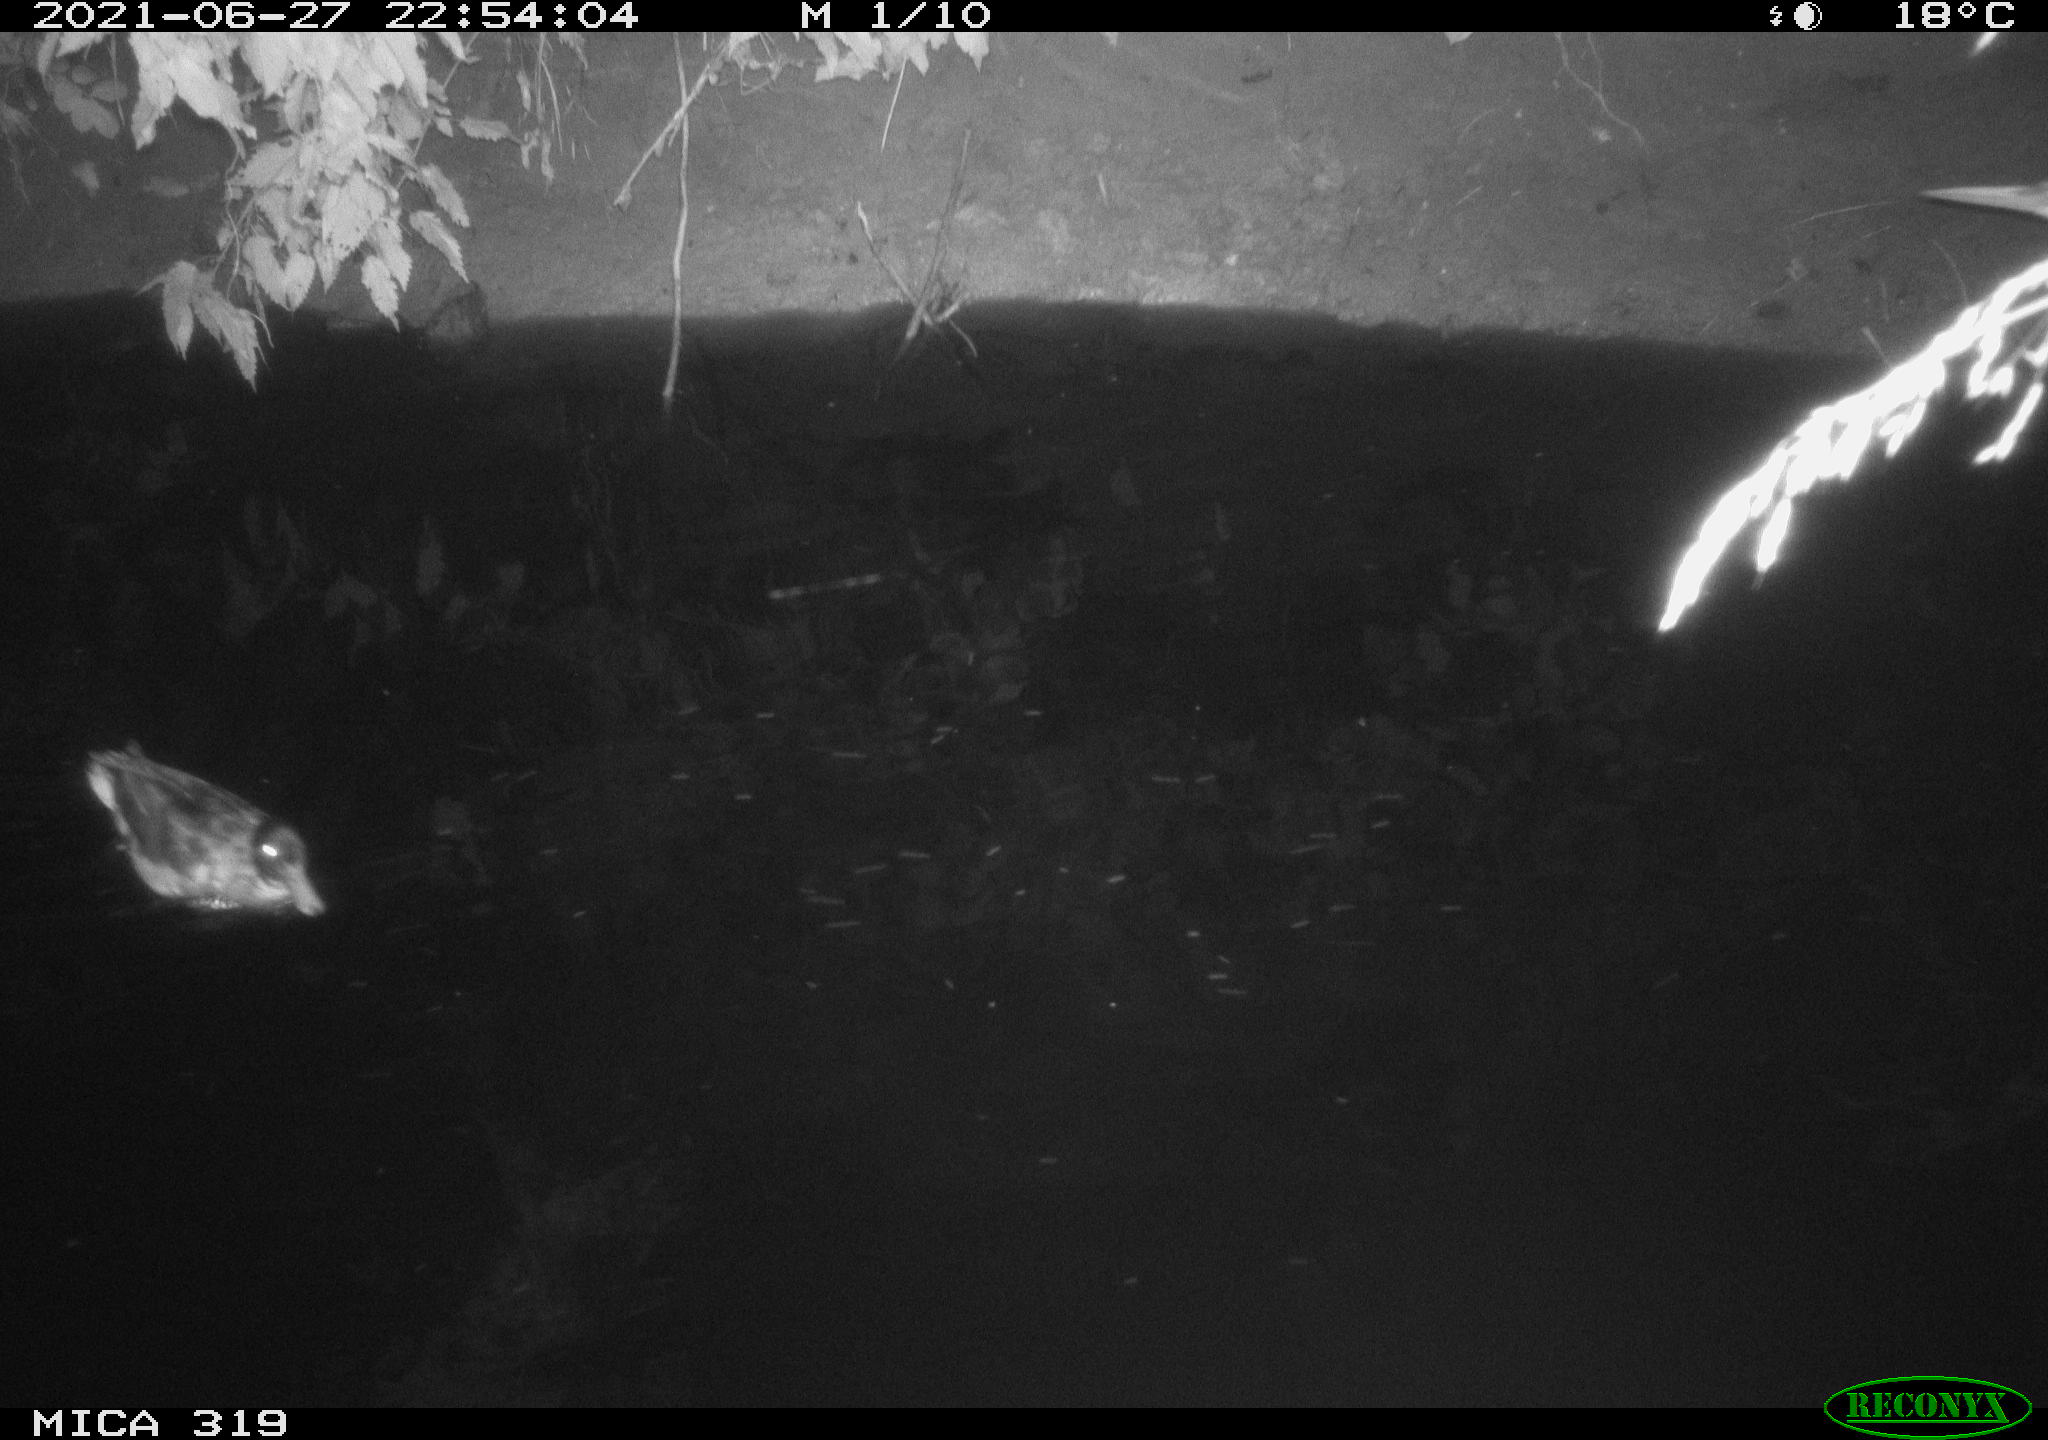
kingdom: Animalia
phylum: Chordata
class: Aves
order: Anseriformes
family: Anatidae
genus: Anas
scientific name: Anas platyrhynchos
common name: Mallard
